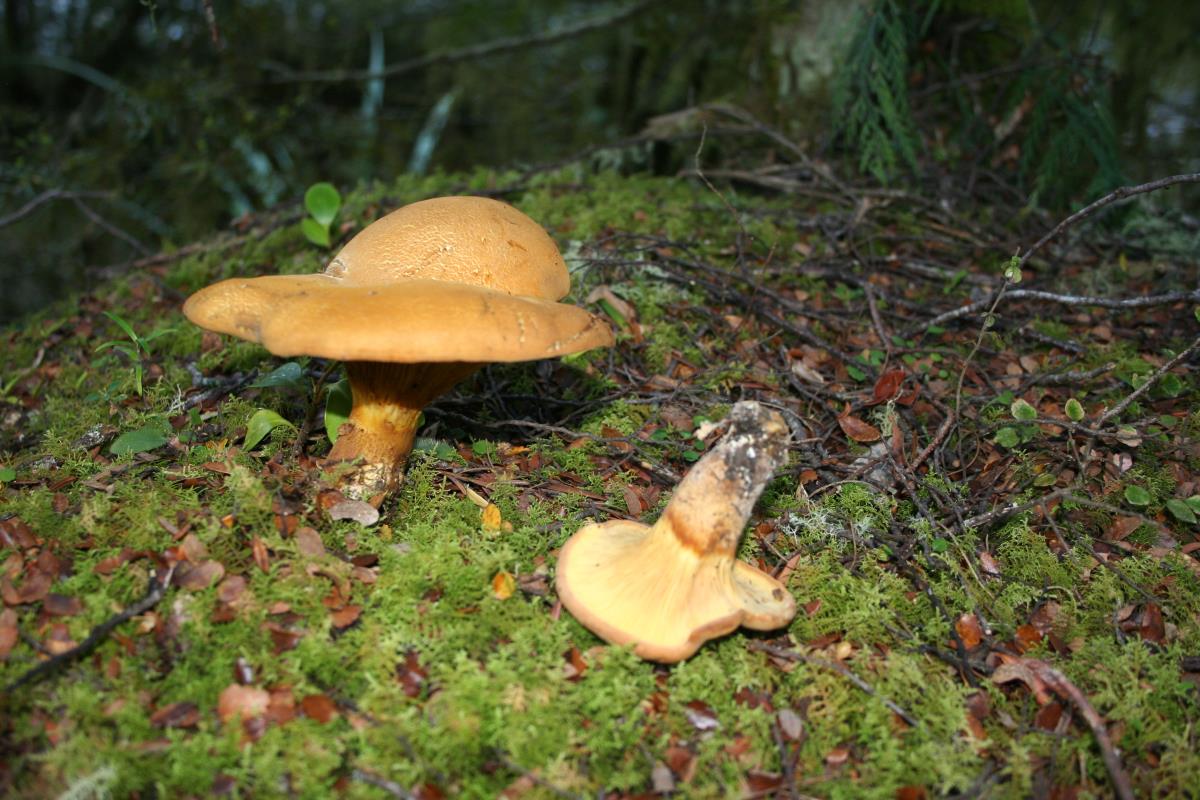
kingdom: Fungi
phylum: Basidiomycota
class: Agaricomycetes
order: Boletales
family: Serpulaceae
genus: Austropaxillus
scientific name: Austropaxillus nothofagi
